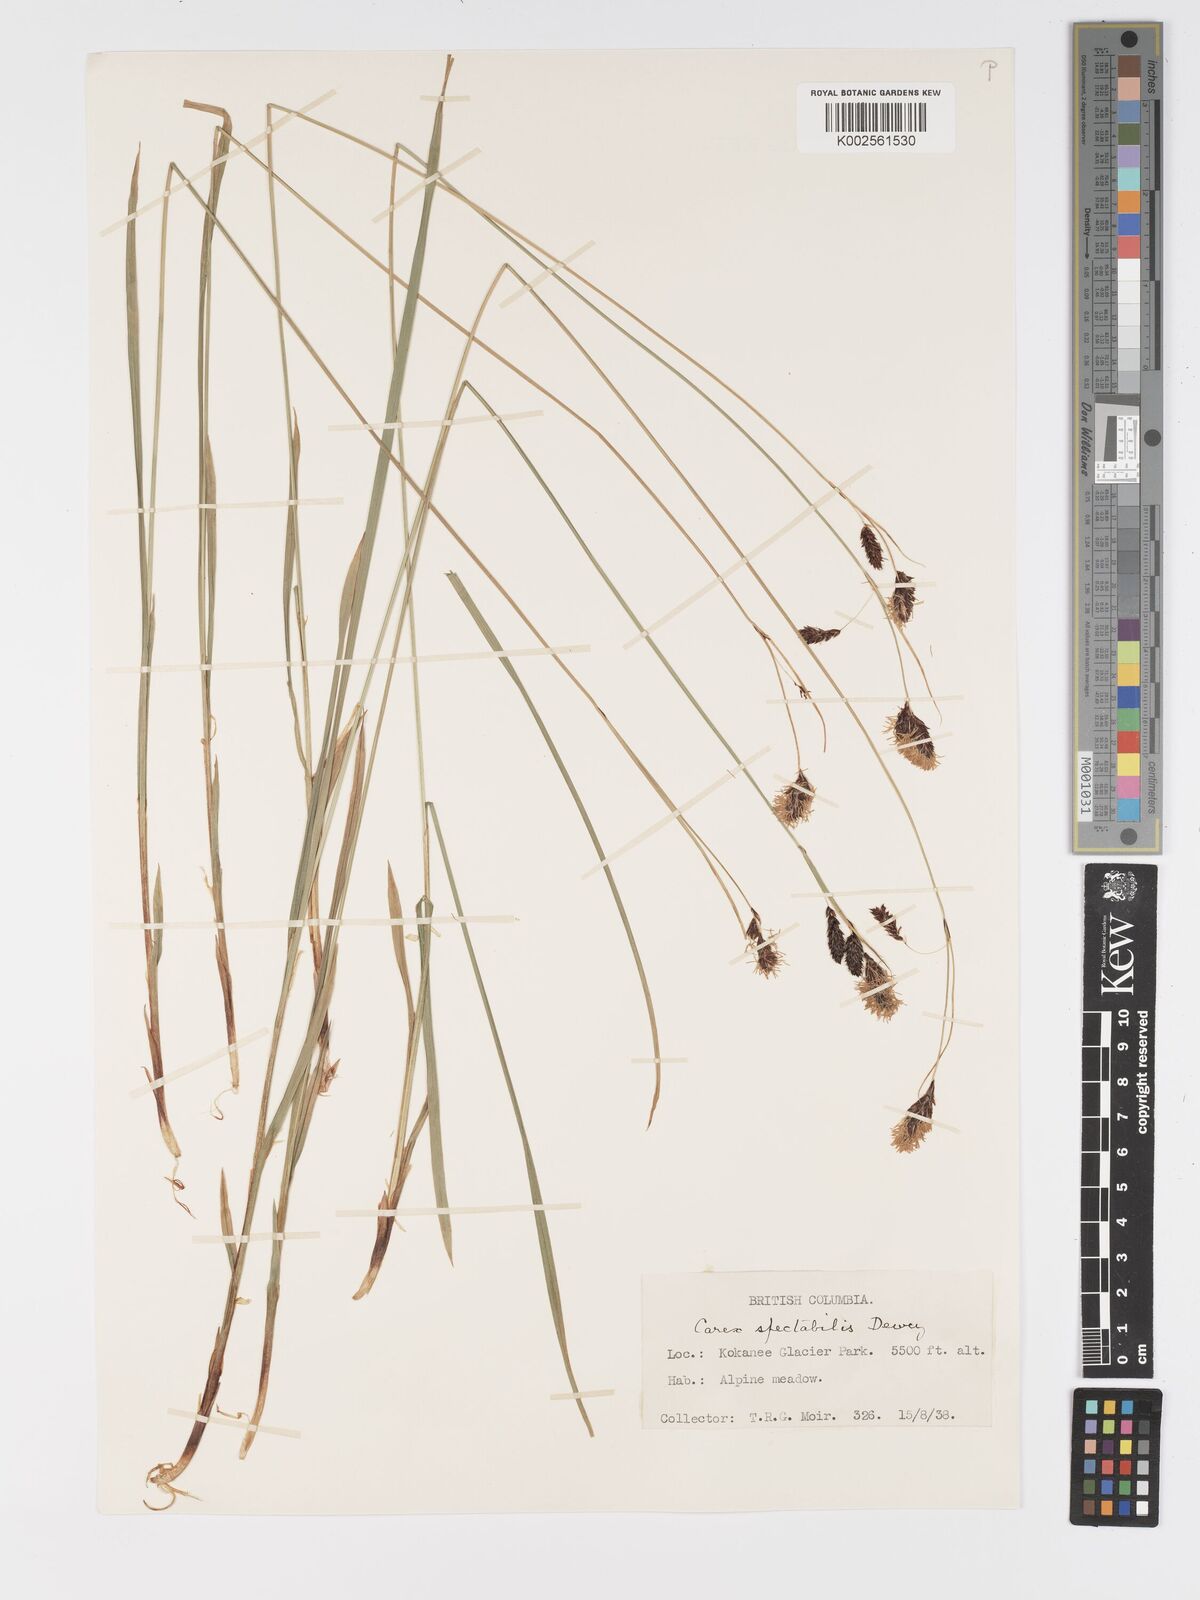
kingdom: Plantae
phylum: Tracheophyta
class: Liliopsida
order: Poales
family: Cyperaceae
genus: Carex
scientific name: Carex spectabilis
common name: Northwestern showy sedge
